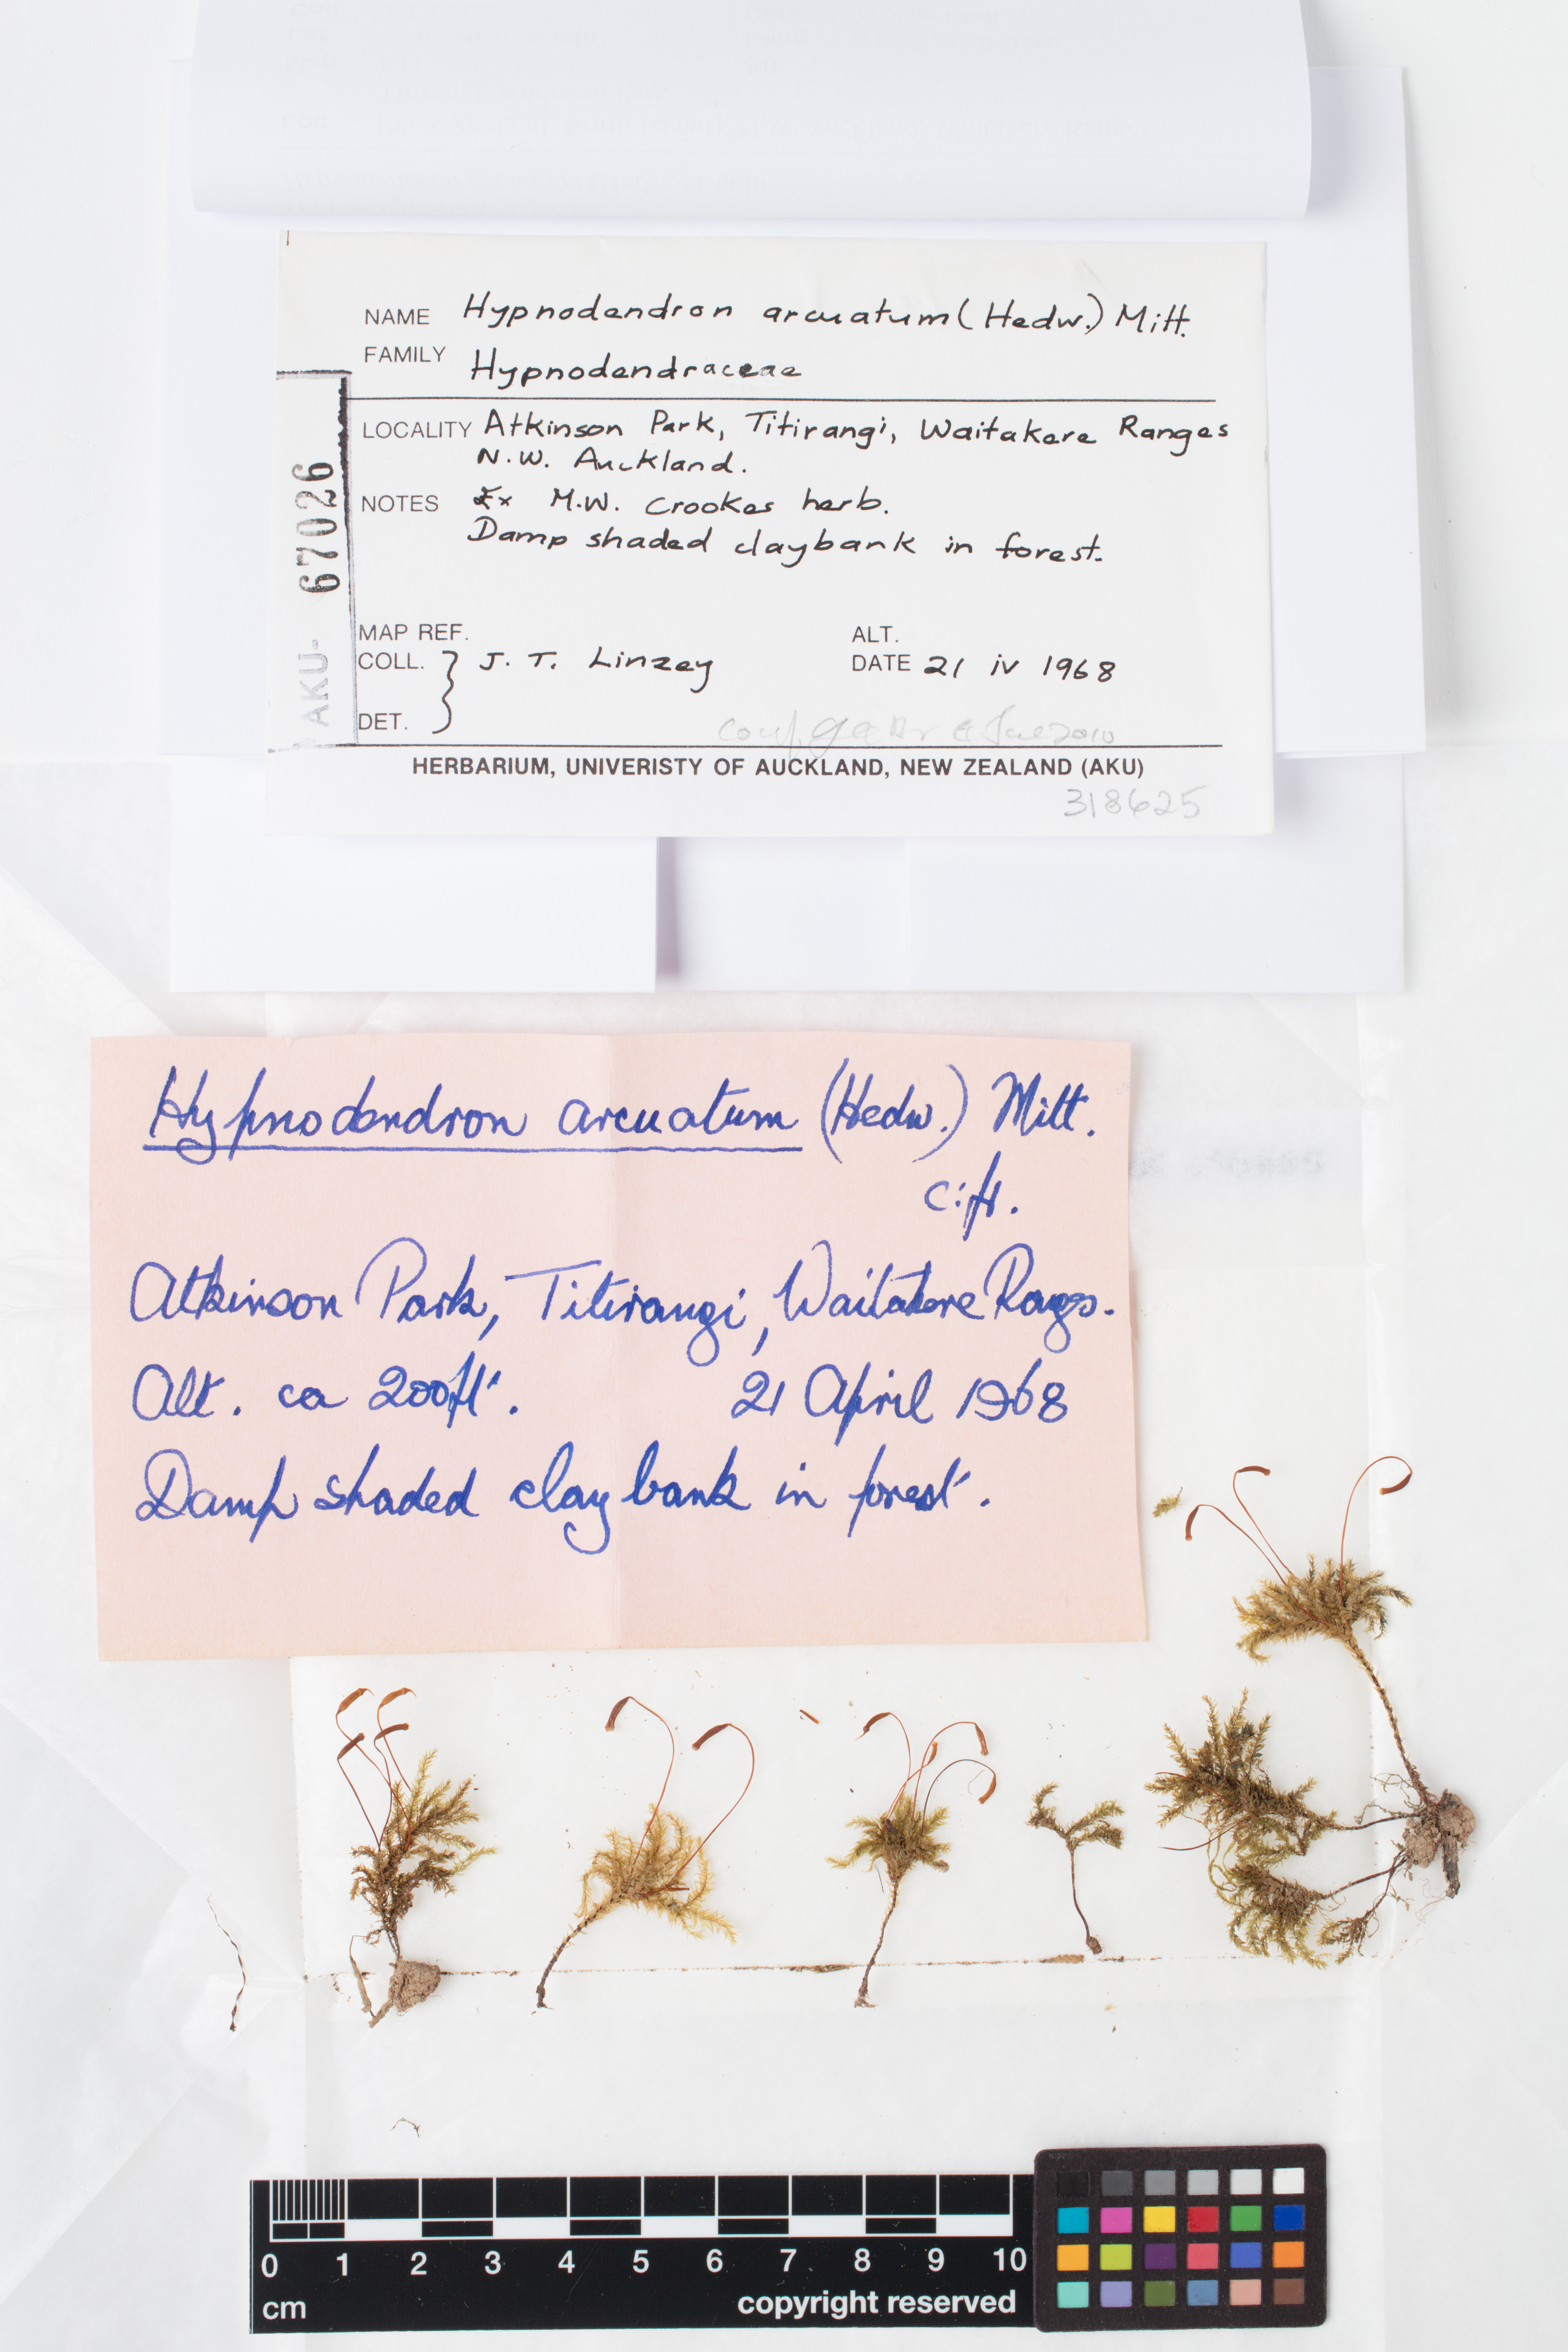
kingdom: Plantae
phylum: Bryophyta
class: Bryopsida
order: Hypnodendrales
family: Spiridentaceae
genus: Hypnodendron
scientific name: Hypnodendron arcuatum
